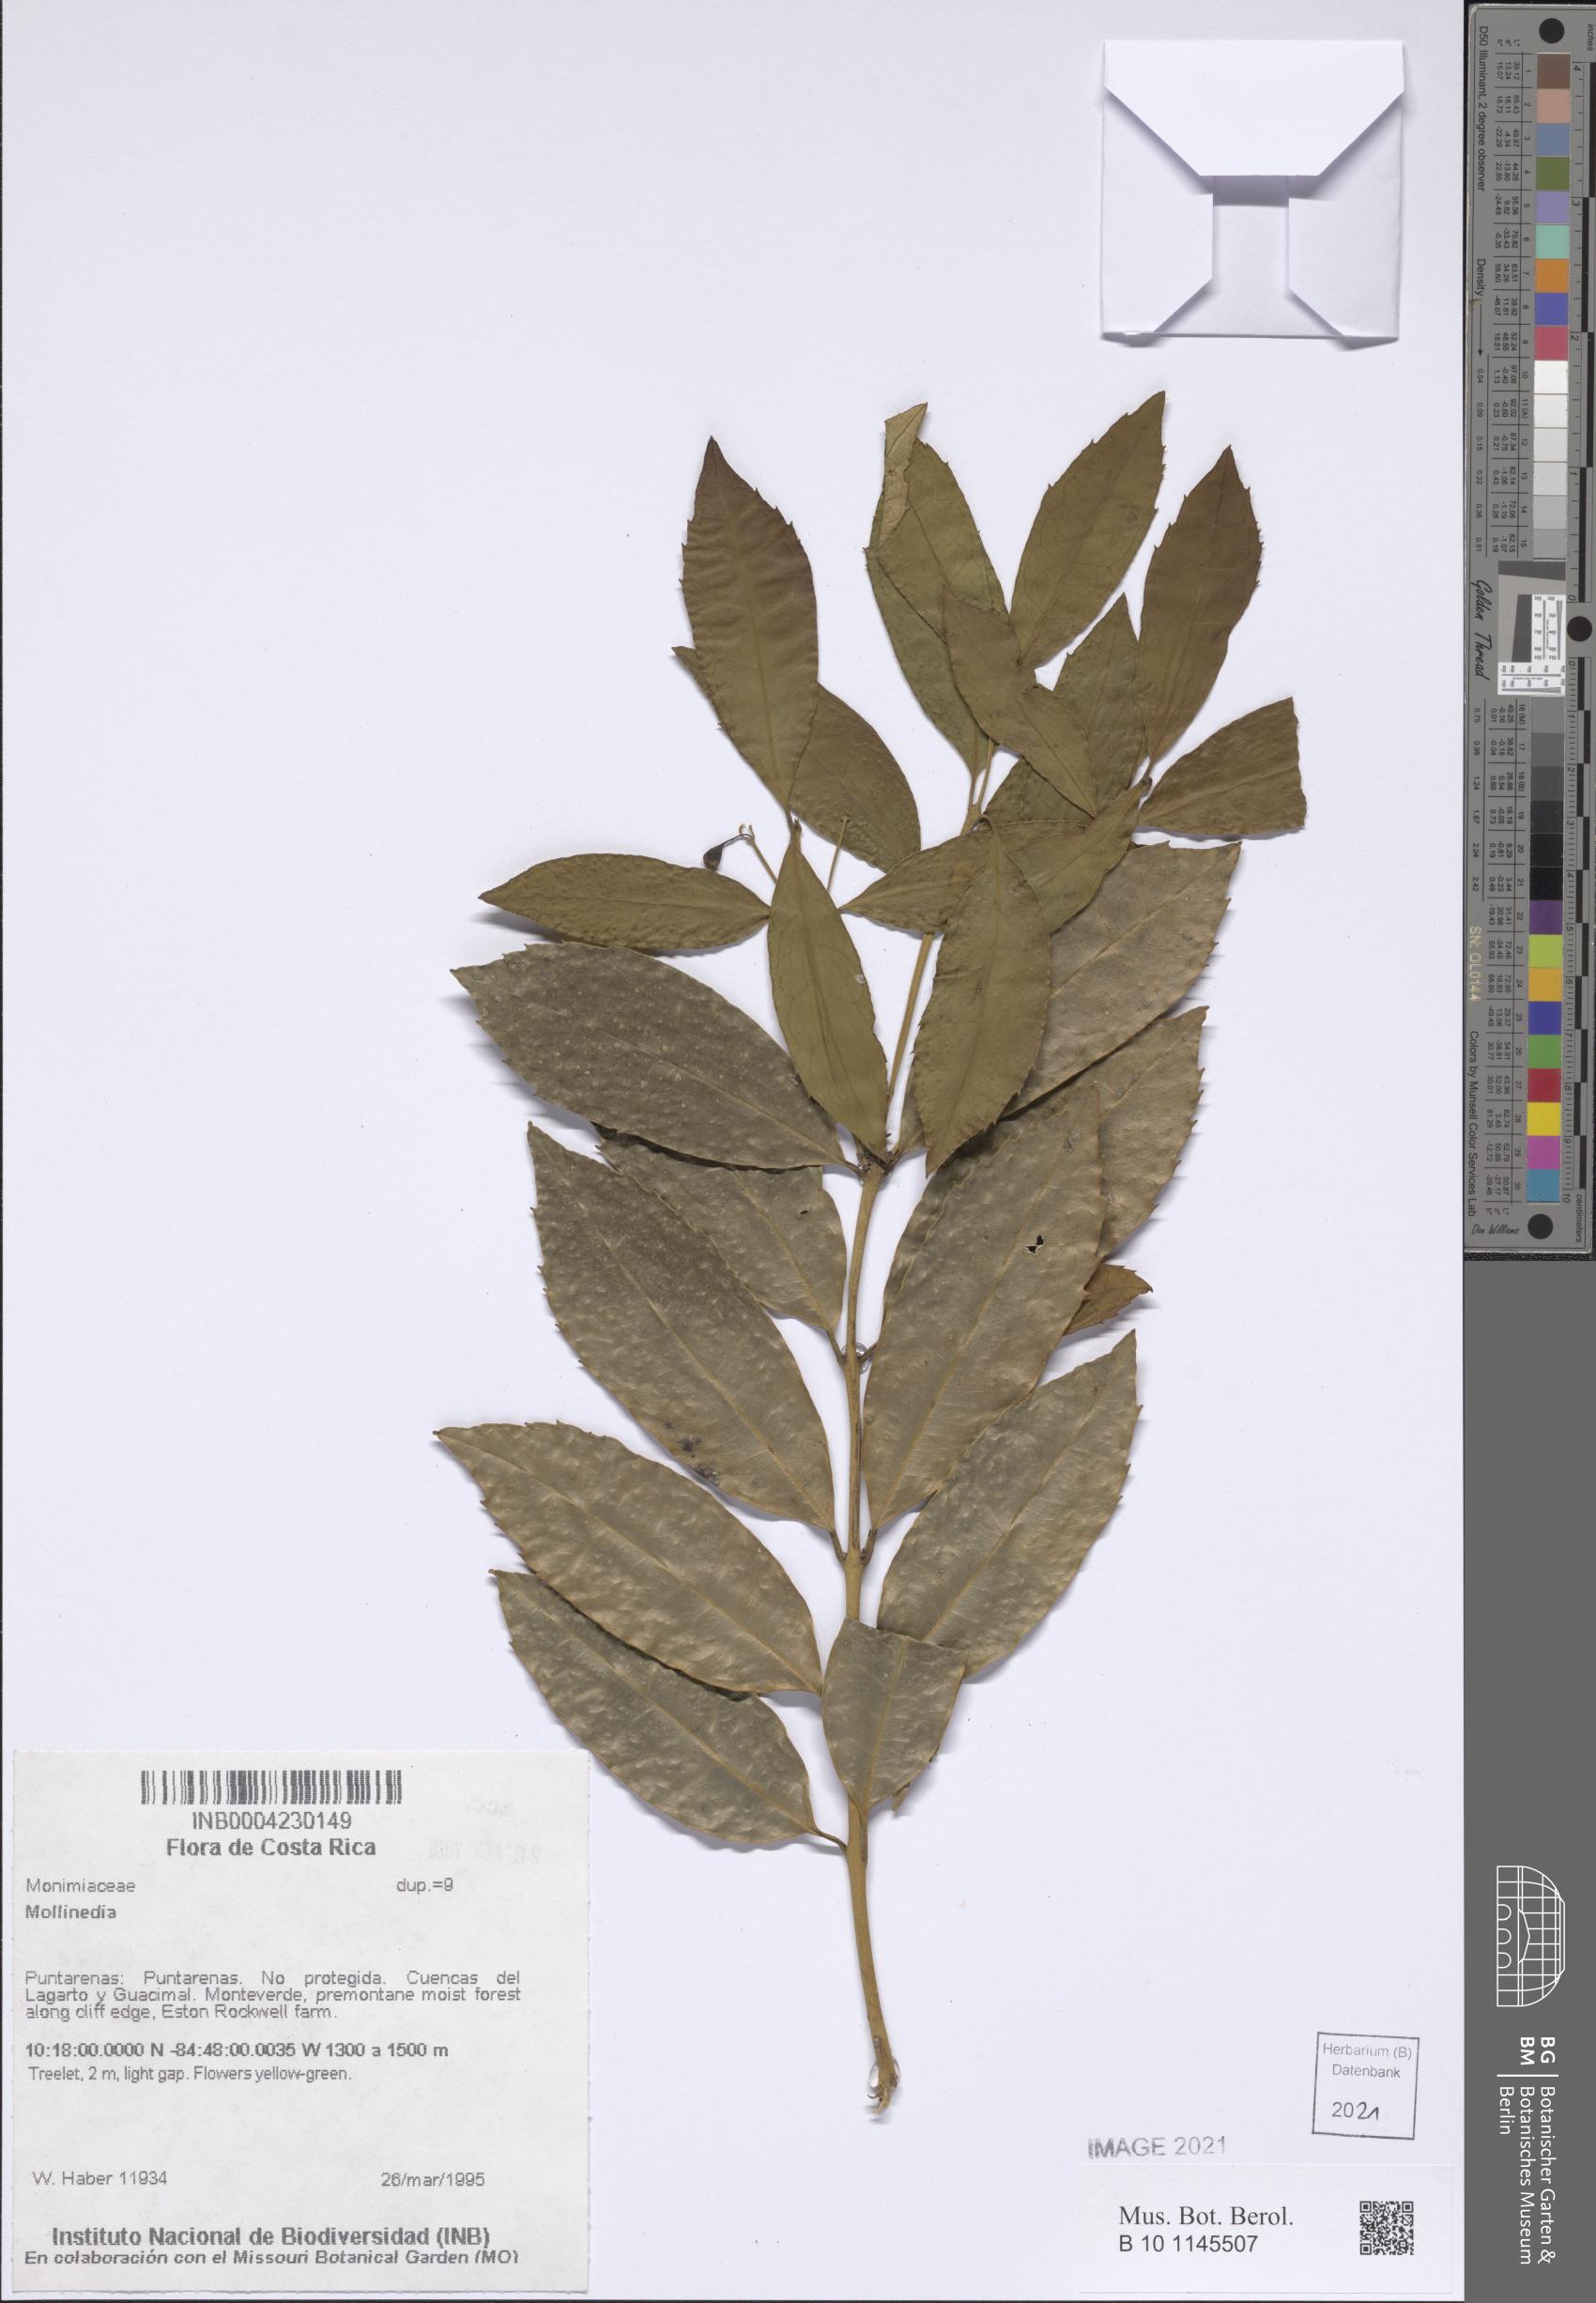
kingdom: Plantae
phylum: Tracheophyta
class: Magnoliopsida
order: Laurales
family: Monimiaceae
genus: Mollinedia
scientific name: Mollinedia viridiflora
